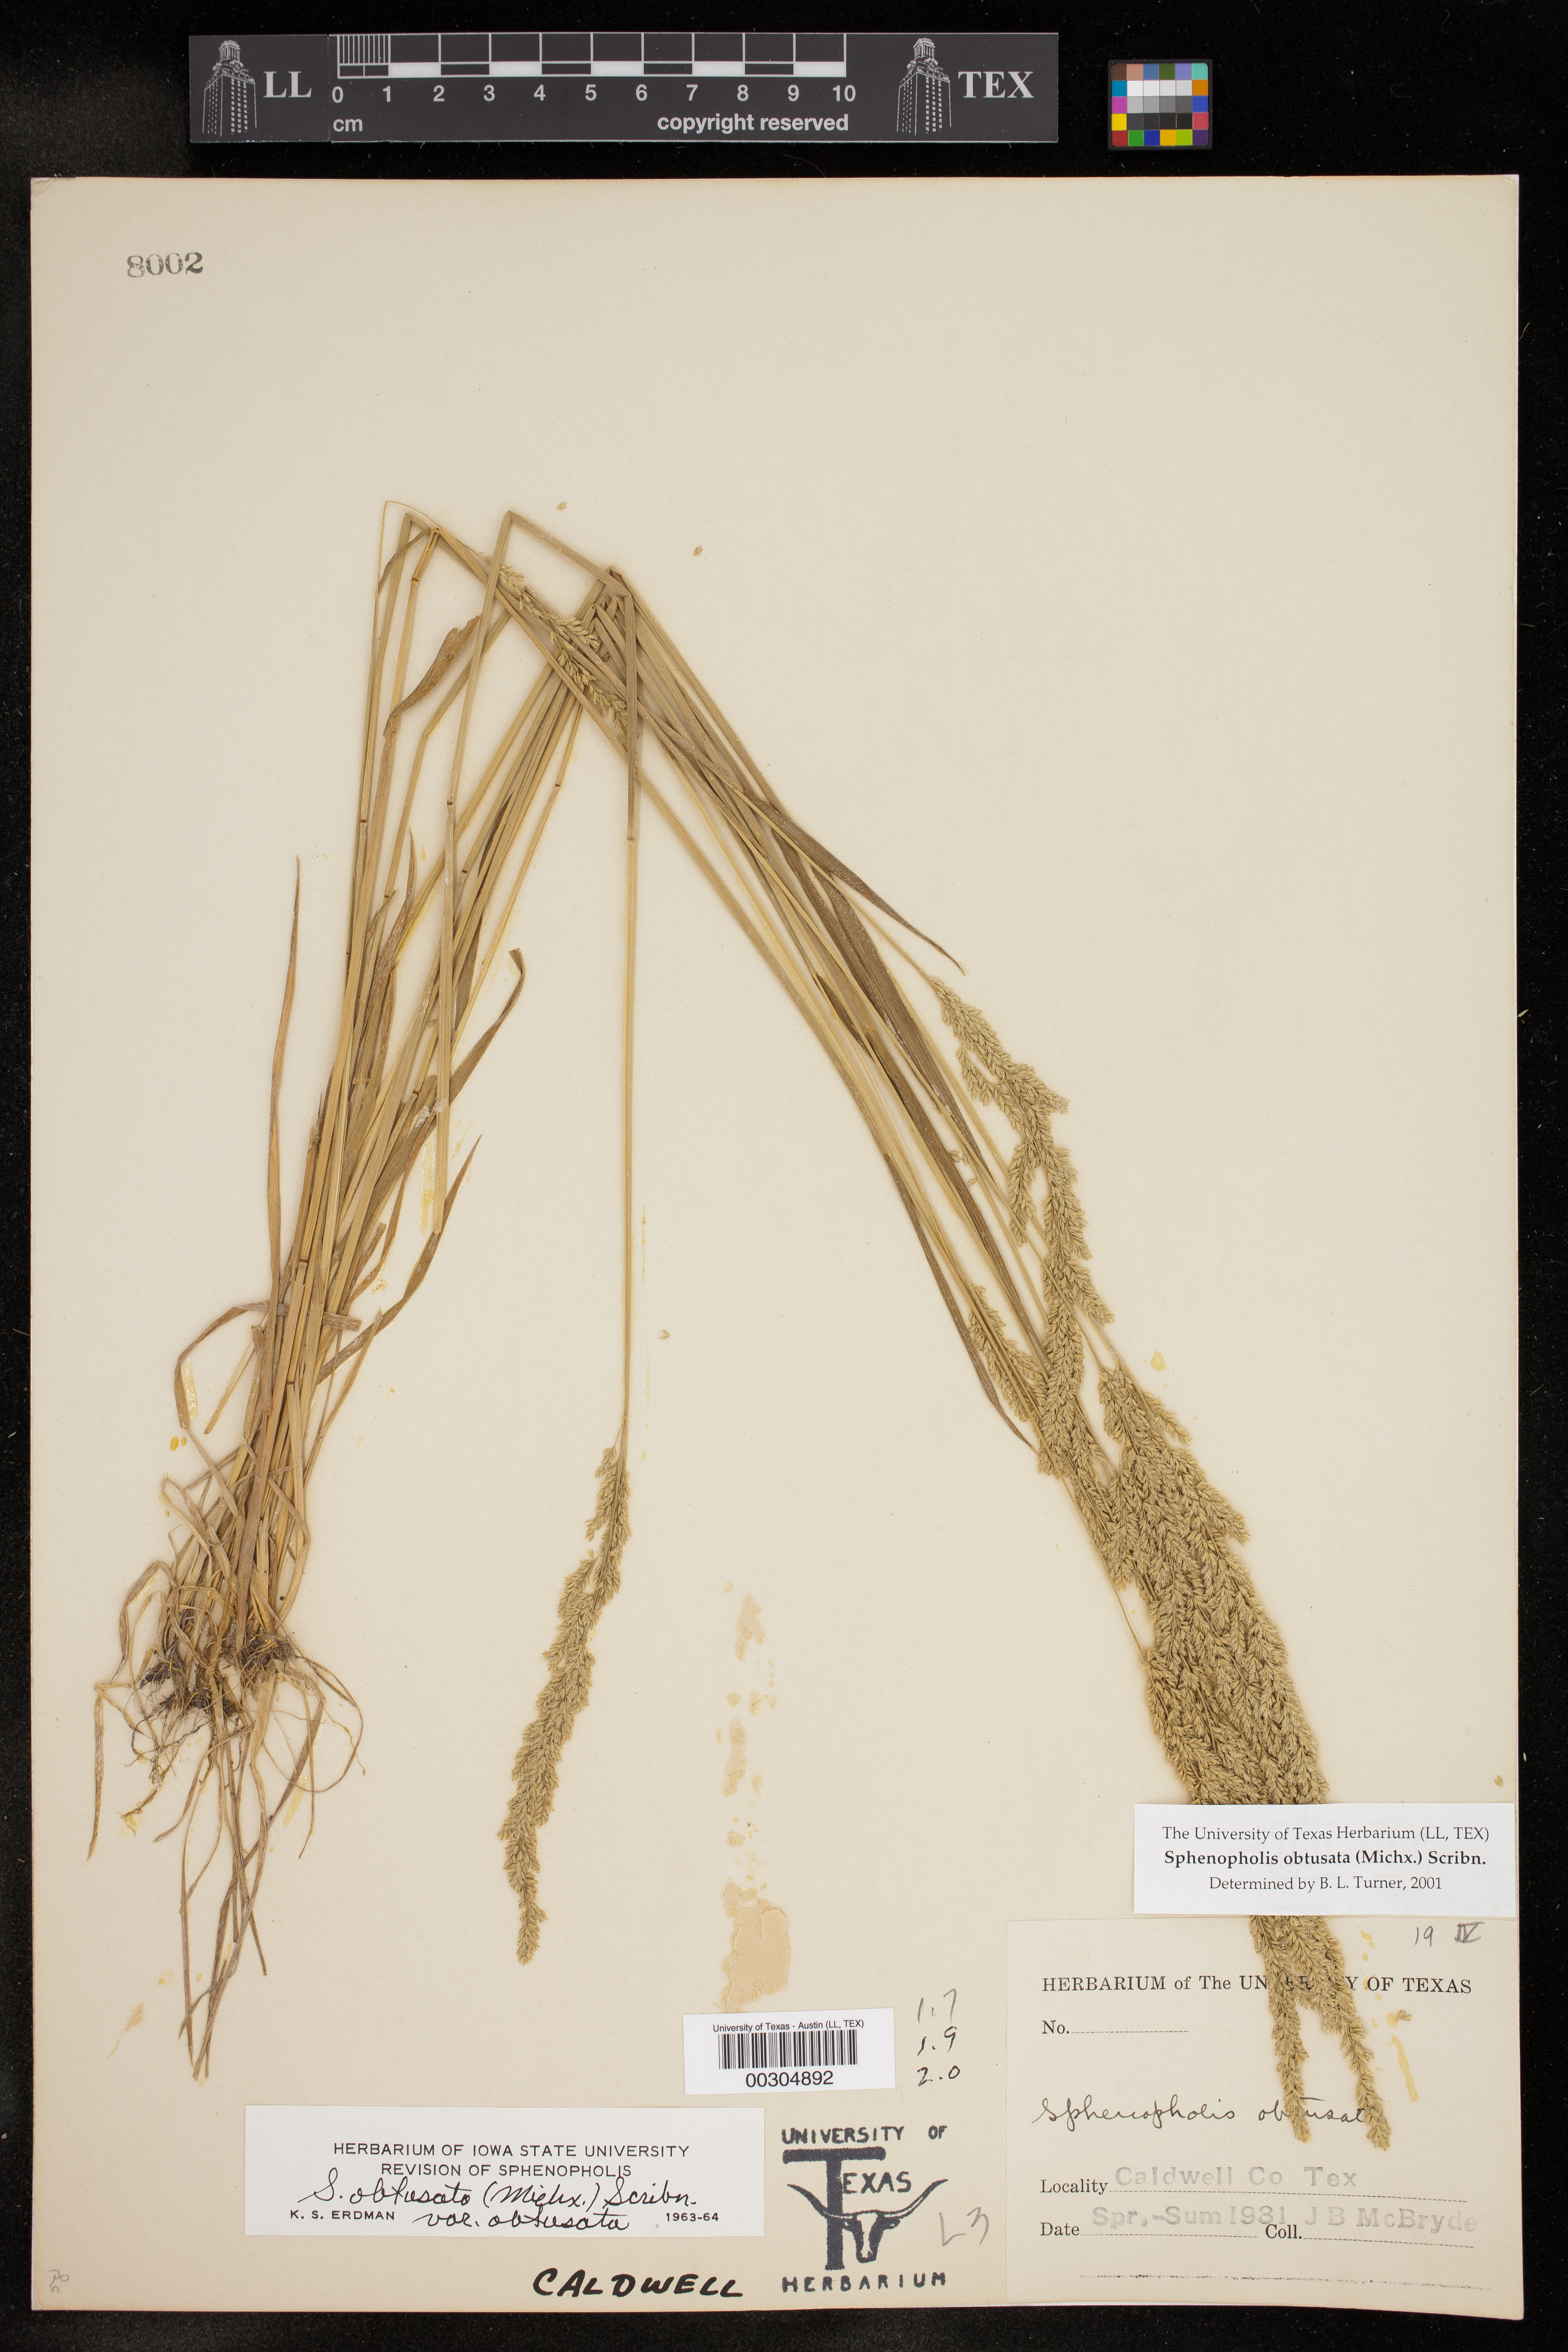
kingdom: Plantae
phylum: Tracheophyta
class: Liliopsida
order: Poales
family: Poaceae
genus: Sphenopholis
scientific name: Sphenopholis obtusata
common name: Prairie grass
